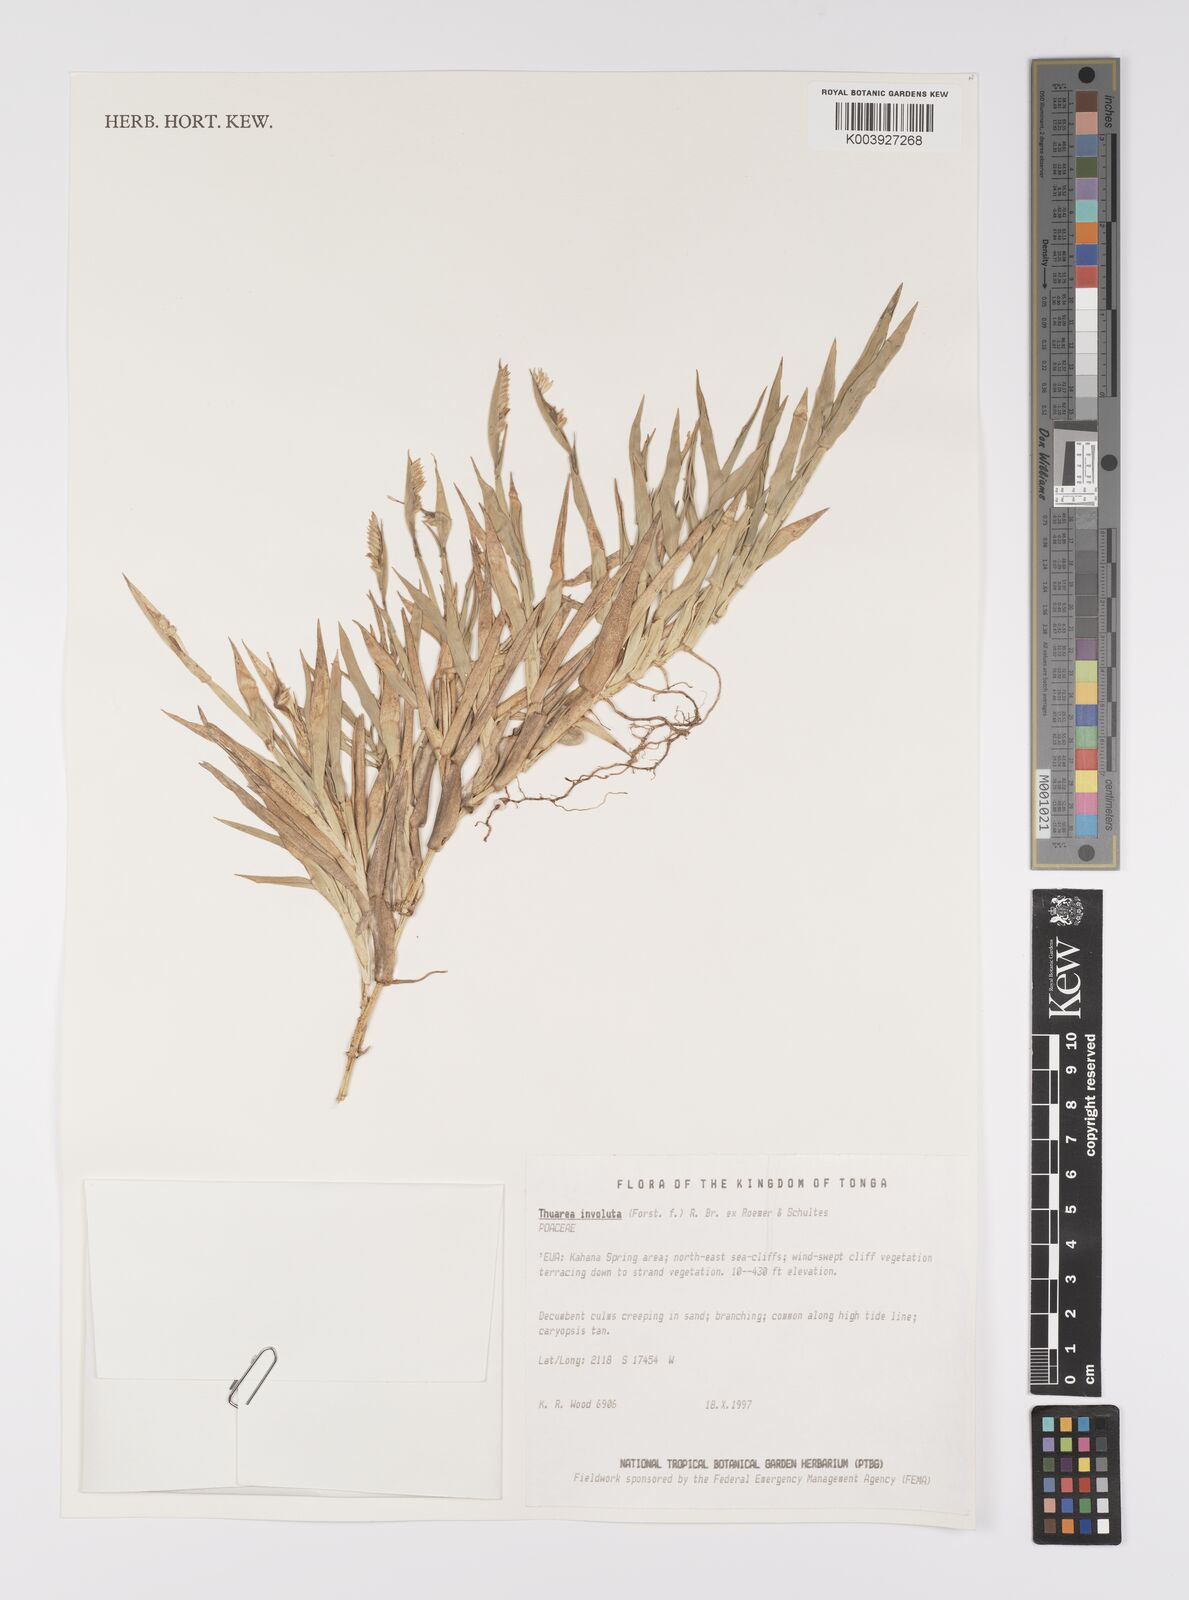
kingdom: Plantae
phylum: Tracheophyta
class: Liliopsida
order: Poales
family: Poaceae
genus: Thuarea
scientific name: Thuarea involuta
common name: Tropical beach grass
